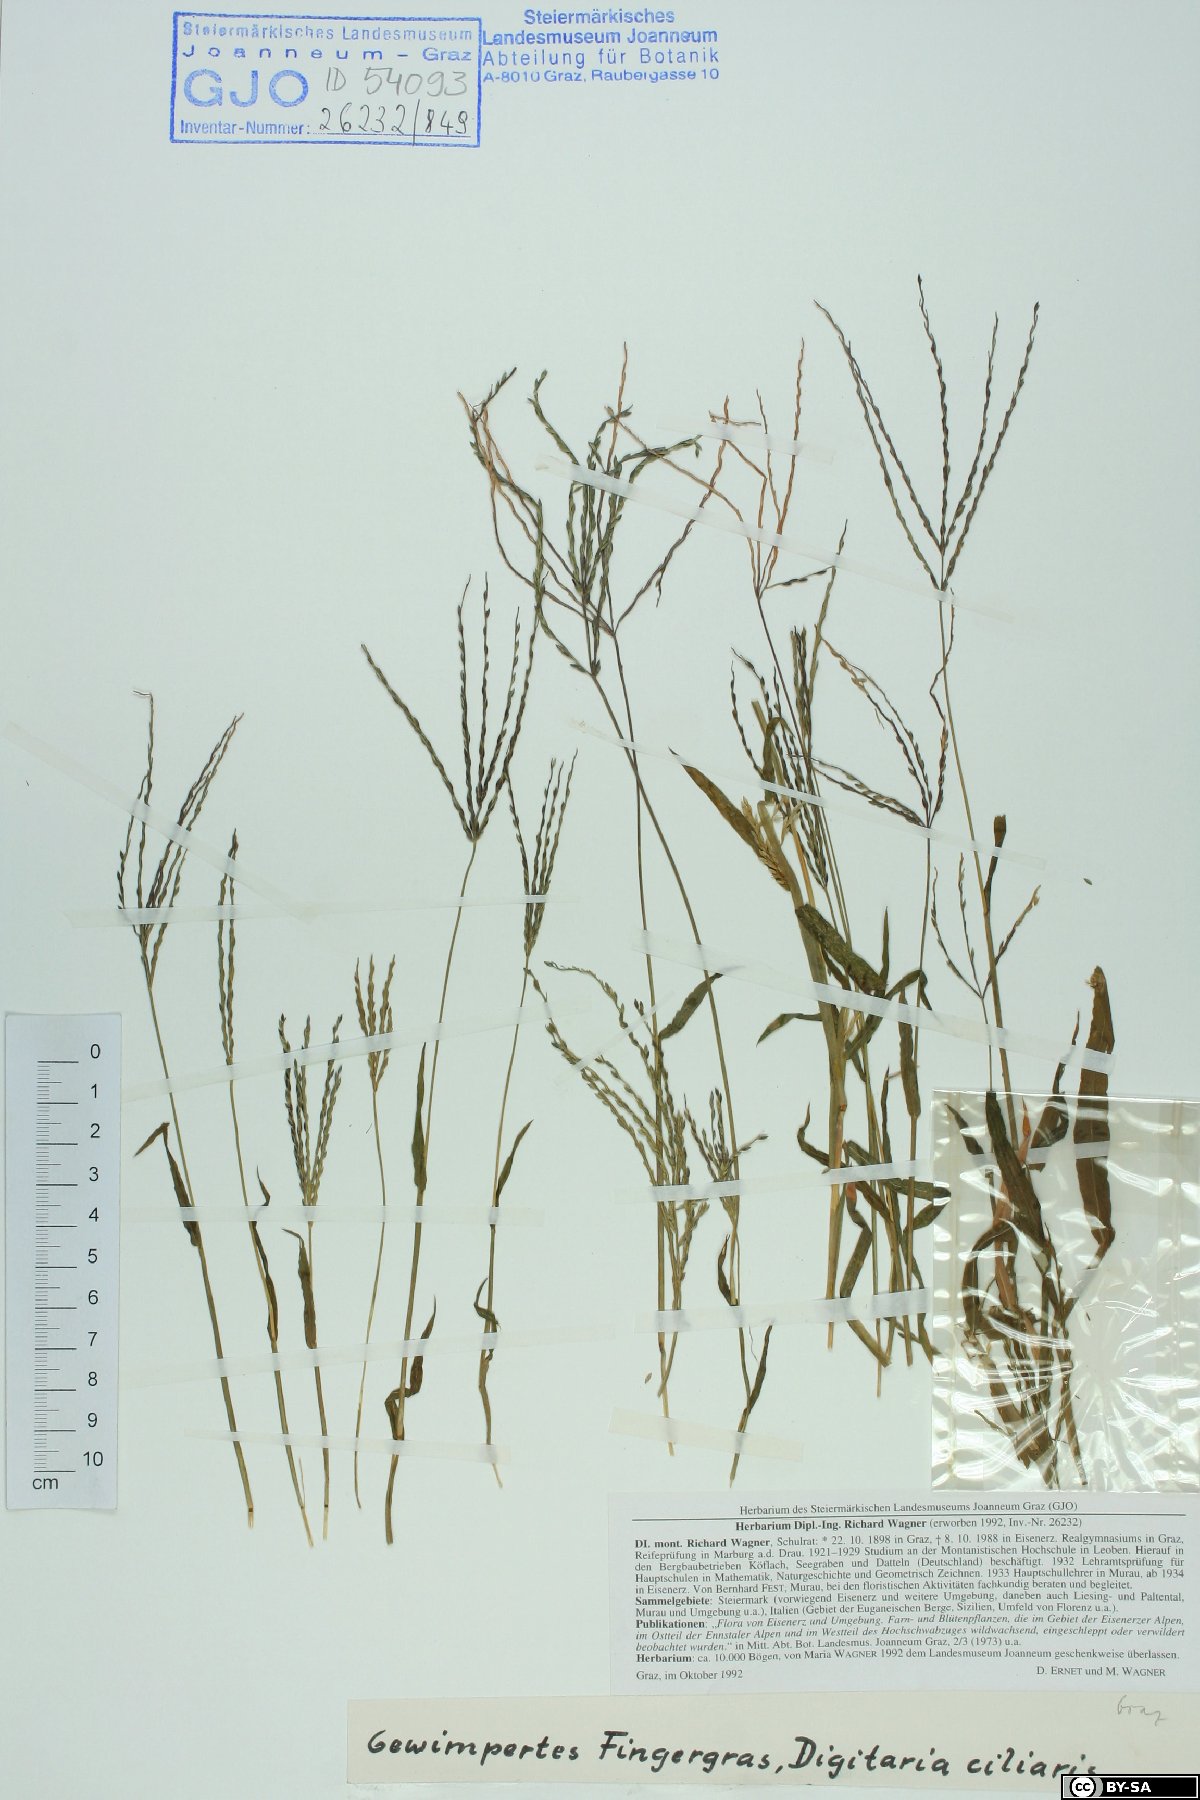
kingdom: Plantae
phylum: Tracheophyta
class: Liliopsida
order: Poales
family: Poaceae
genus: Digitaria
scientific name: Digitaria ciliaris
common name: Tropical finger-grass
